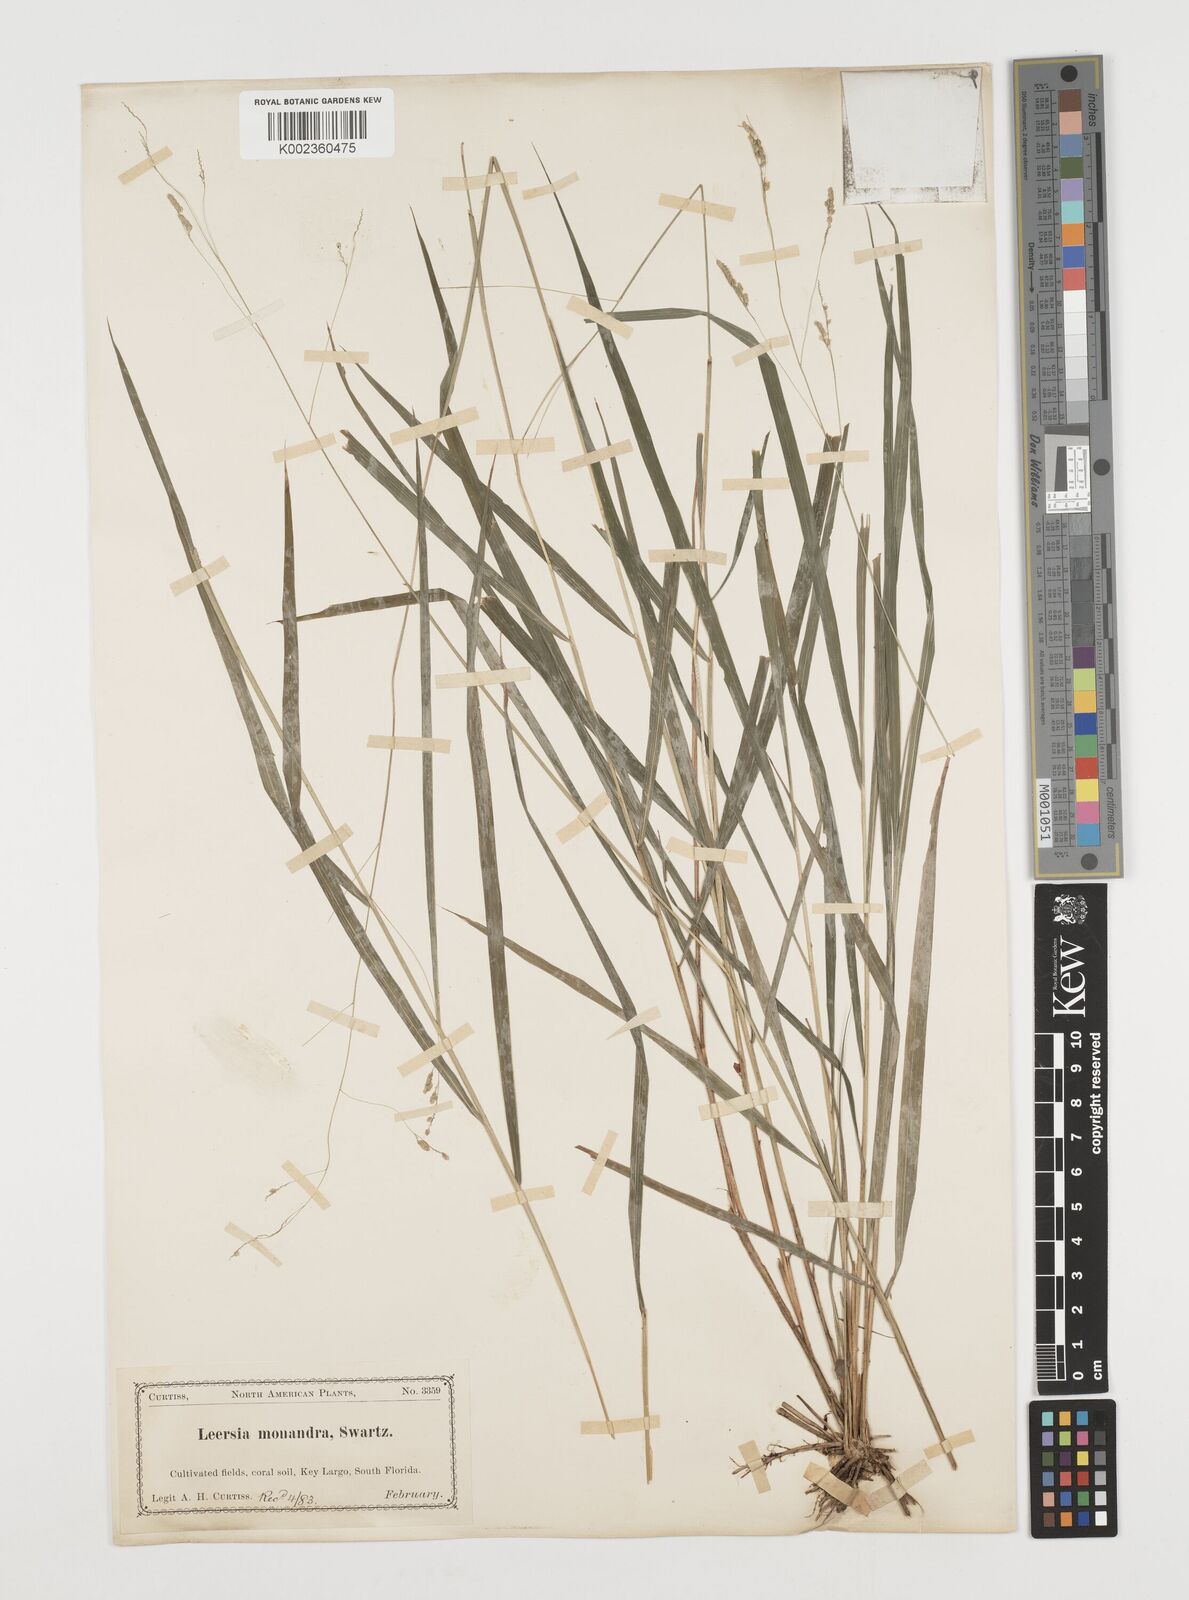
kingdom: Plantae
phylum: Tracheophyta
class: Liliopsida
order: Poales
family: Poaceae
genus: Leersia
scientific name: Leersia monandra
